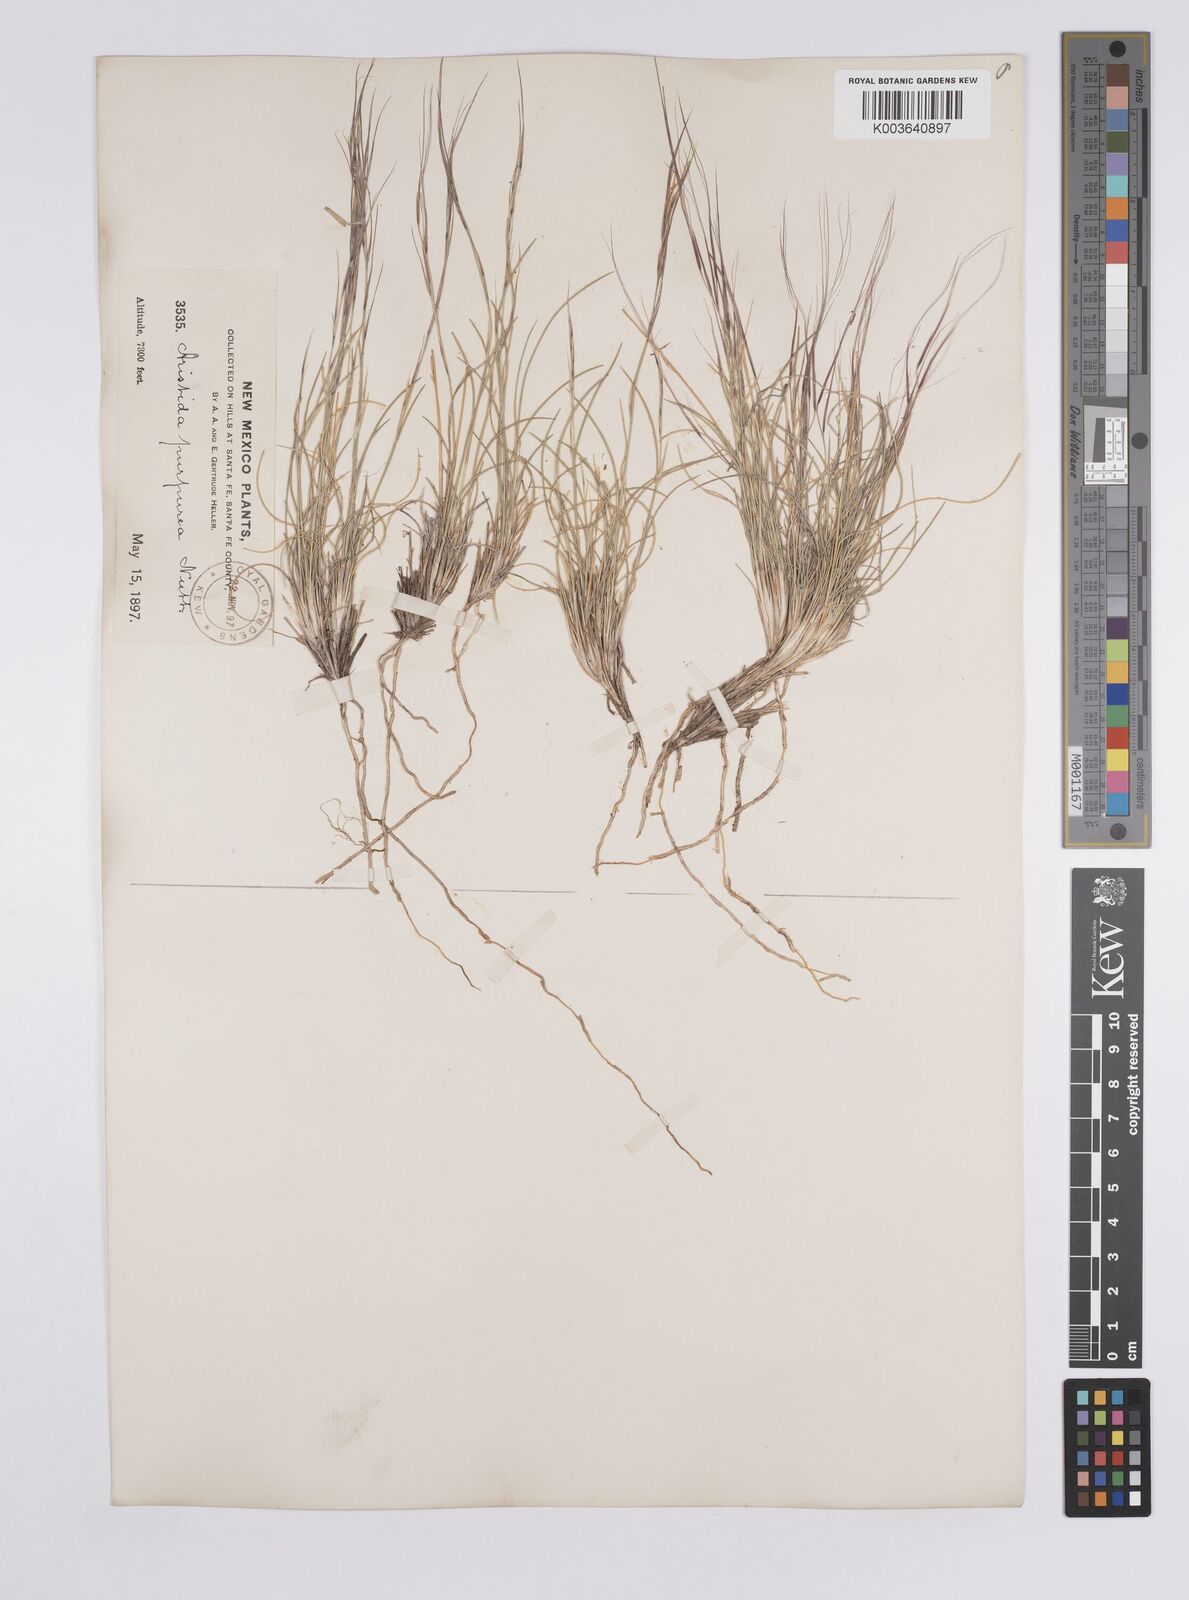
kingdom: Plantae
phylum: Tracheophyta
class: Liliopsida
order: Poales
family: Poaceae
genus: Aristida
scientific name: Aristida purpurea
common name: Purple threeawn
